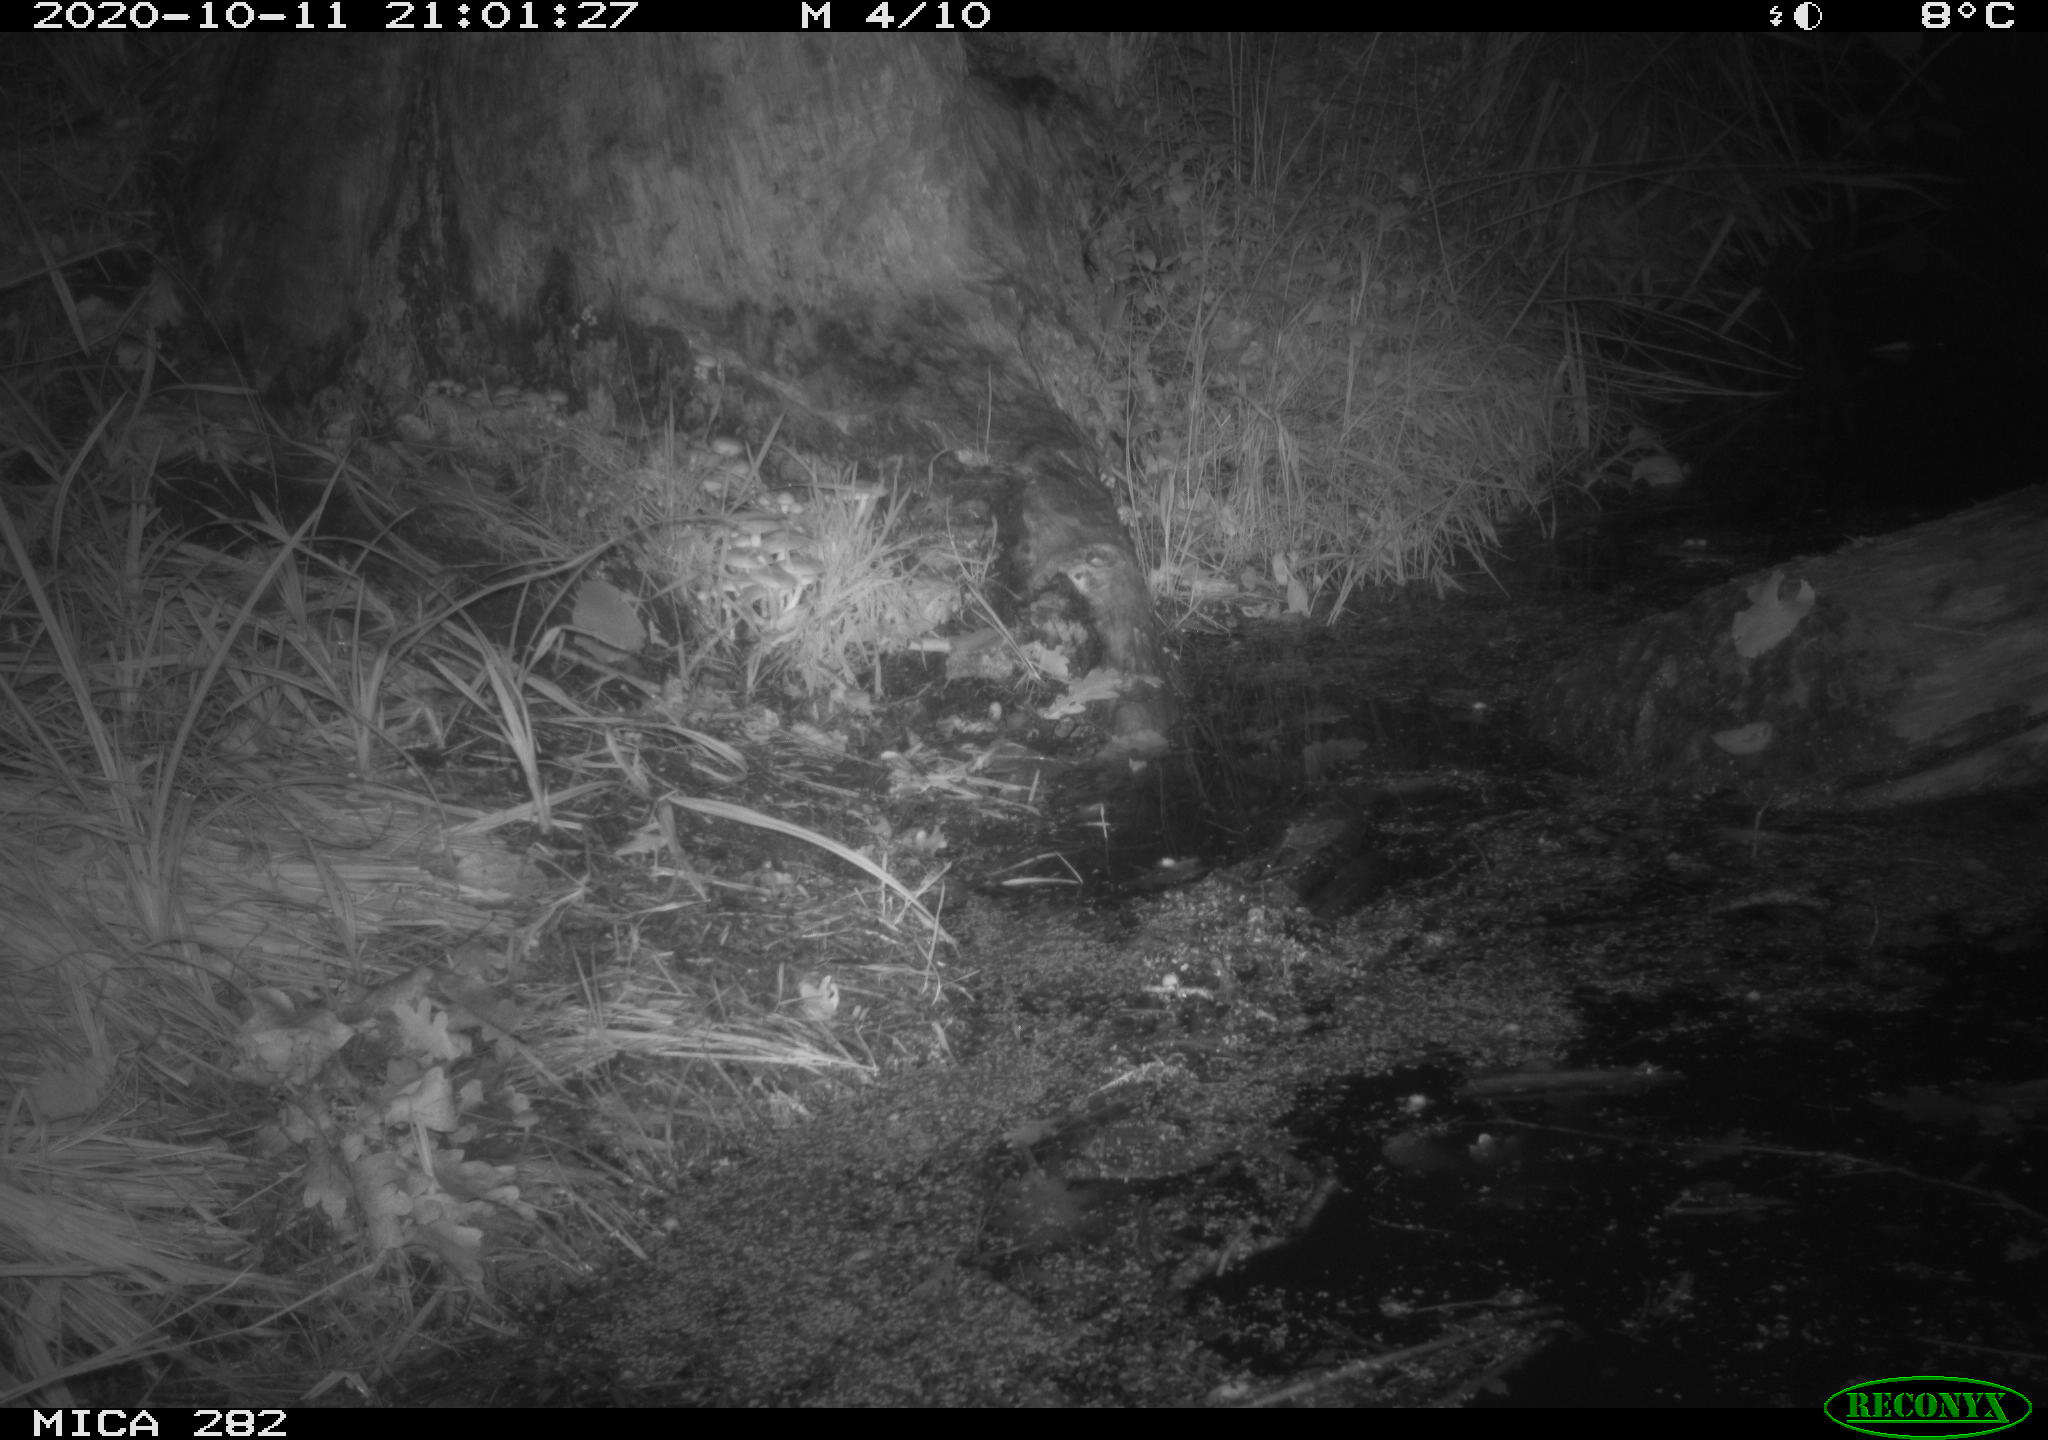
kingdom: Animalia
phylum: Chordata
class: Mammalia
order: Soricomorpha
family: Soricidae
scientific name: Soricidae
